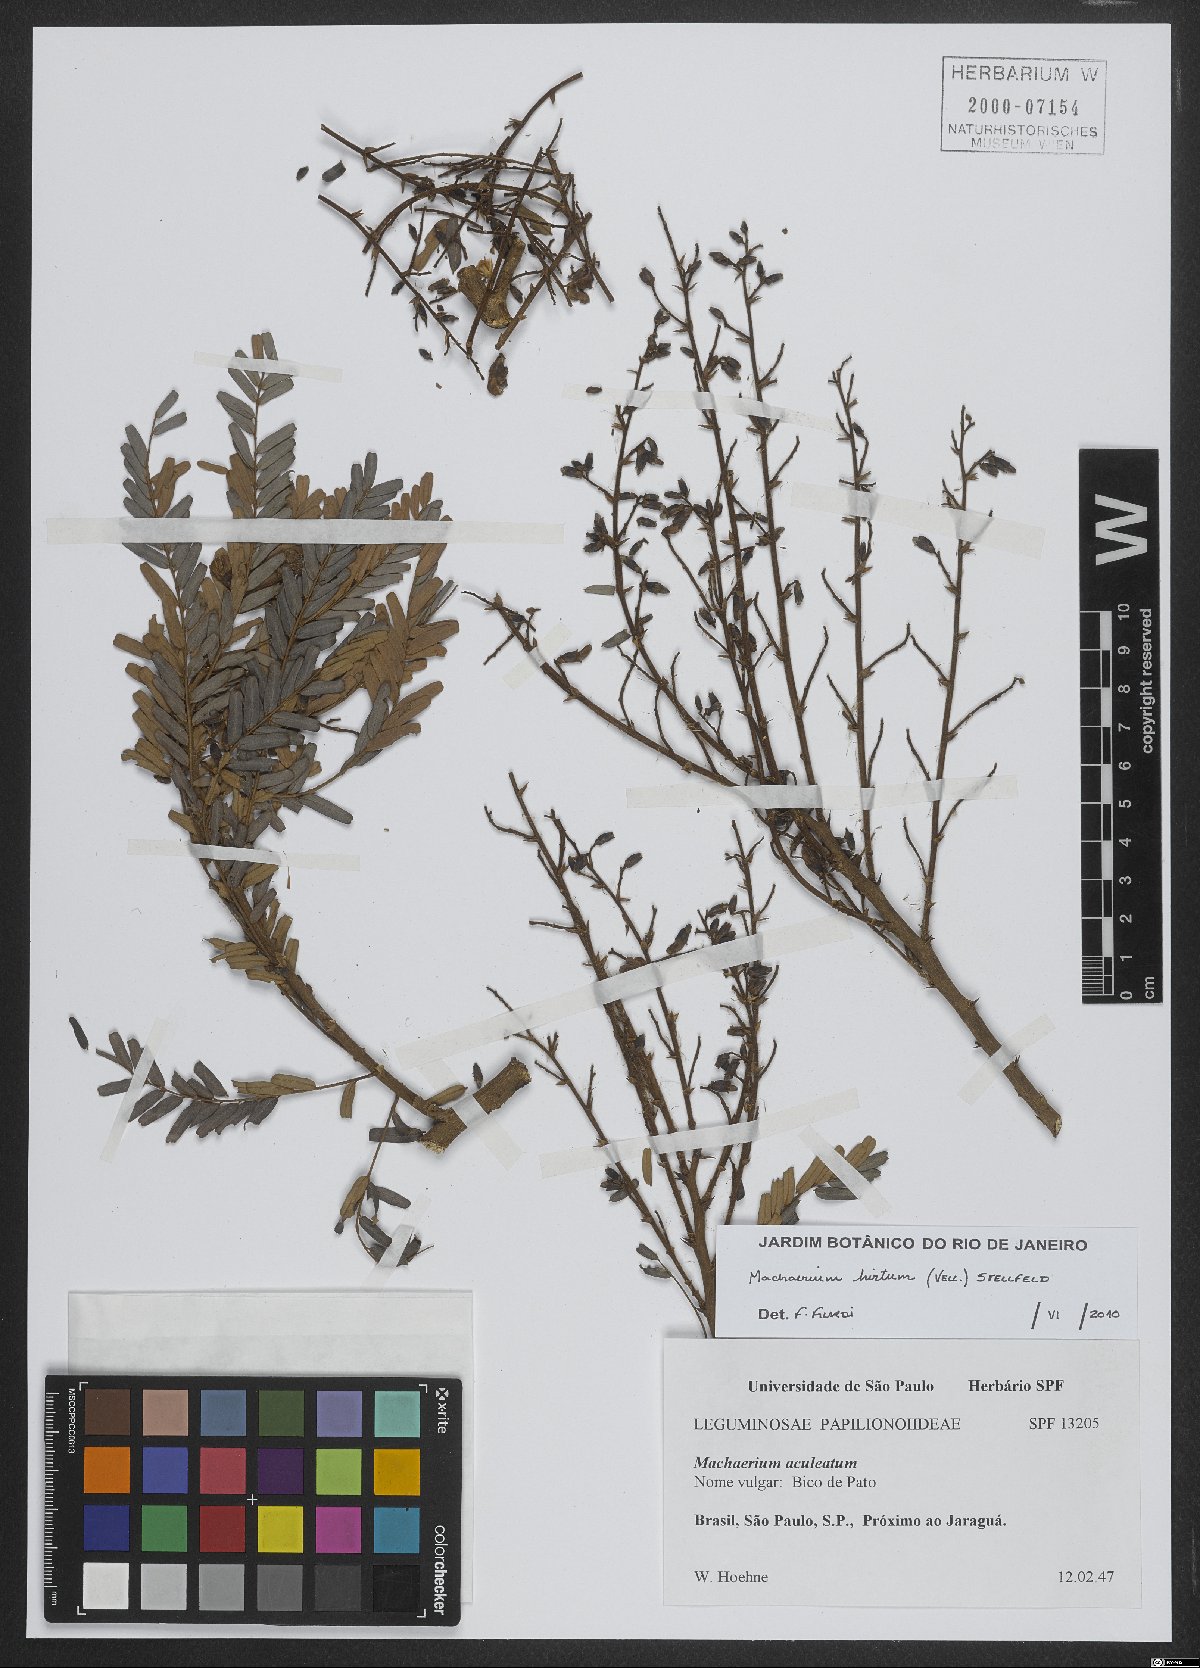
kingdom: Plantae
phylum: Tracheophyta
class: Magnoliopsida
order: Fabales
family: Fabaceae
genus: Machaerium
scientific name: Machaerium hirtum
